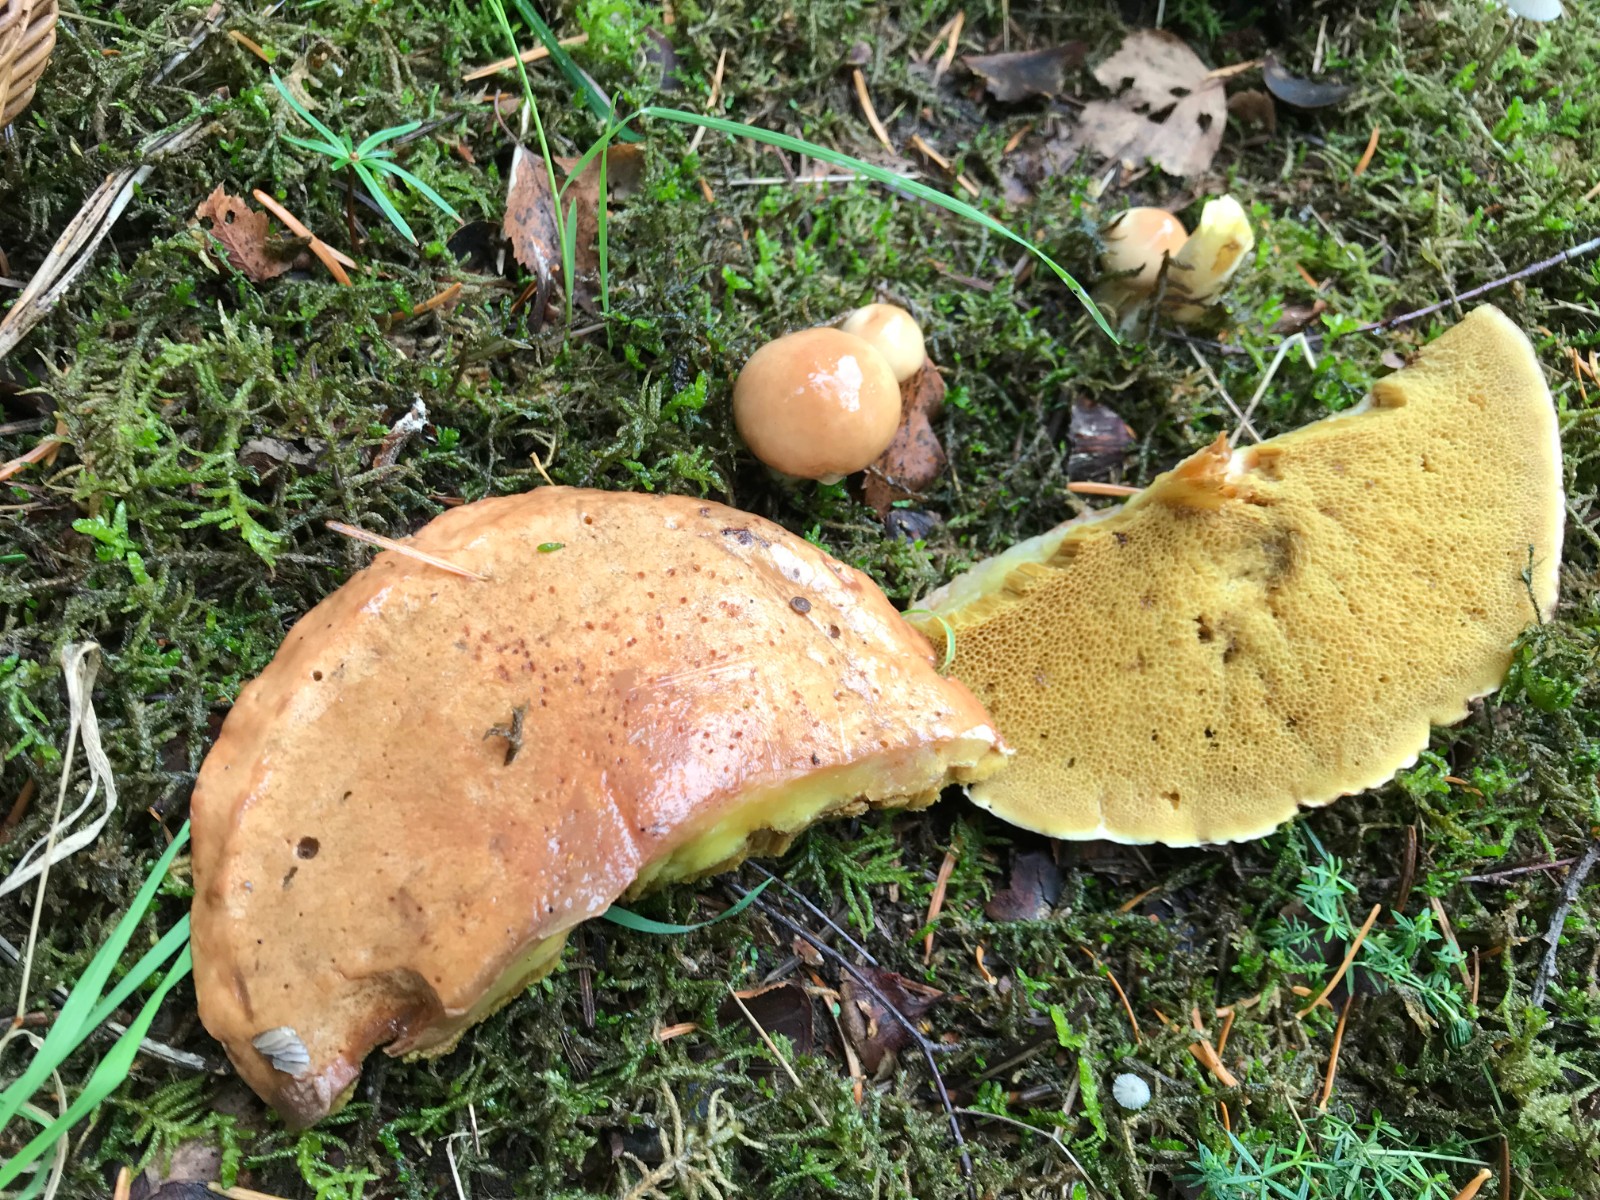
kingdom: Fungi
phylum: Basidiomycota
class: Agaricomycetes
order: Boletales
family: Suillaceae
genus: Suillus
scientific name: Suillus
